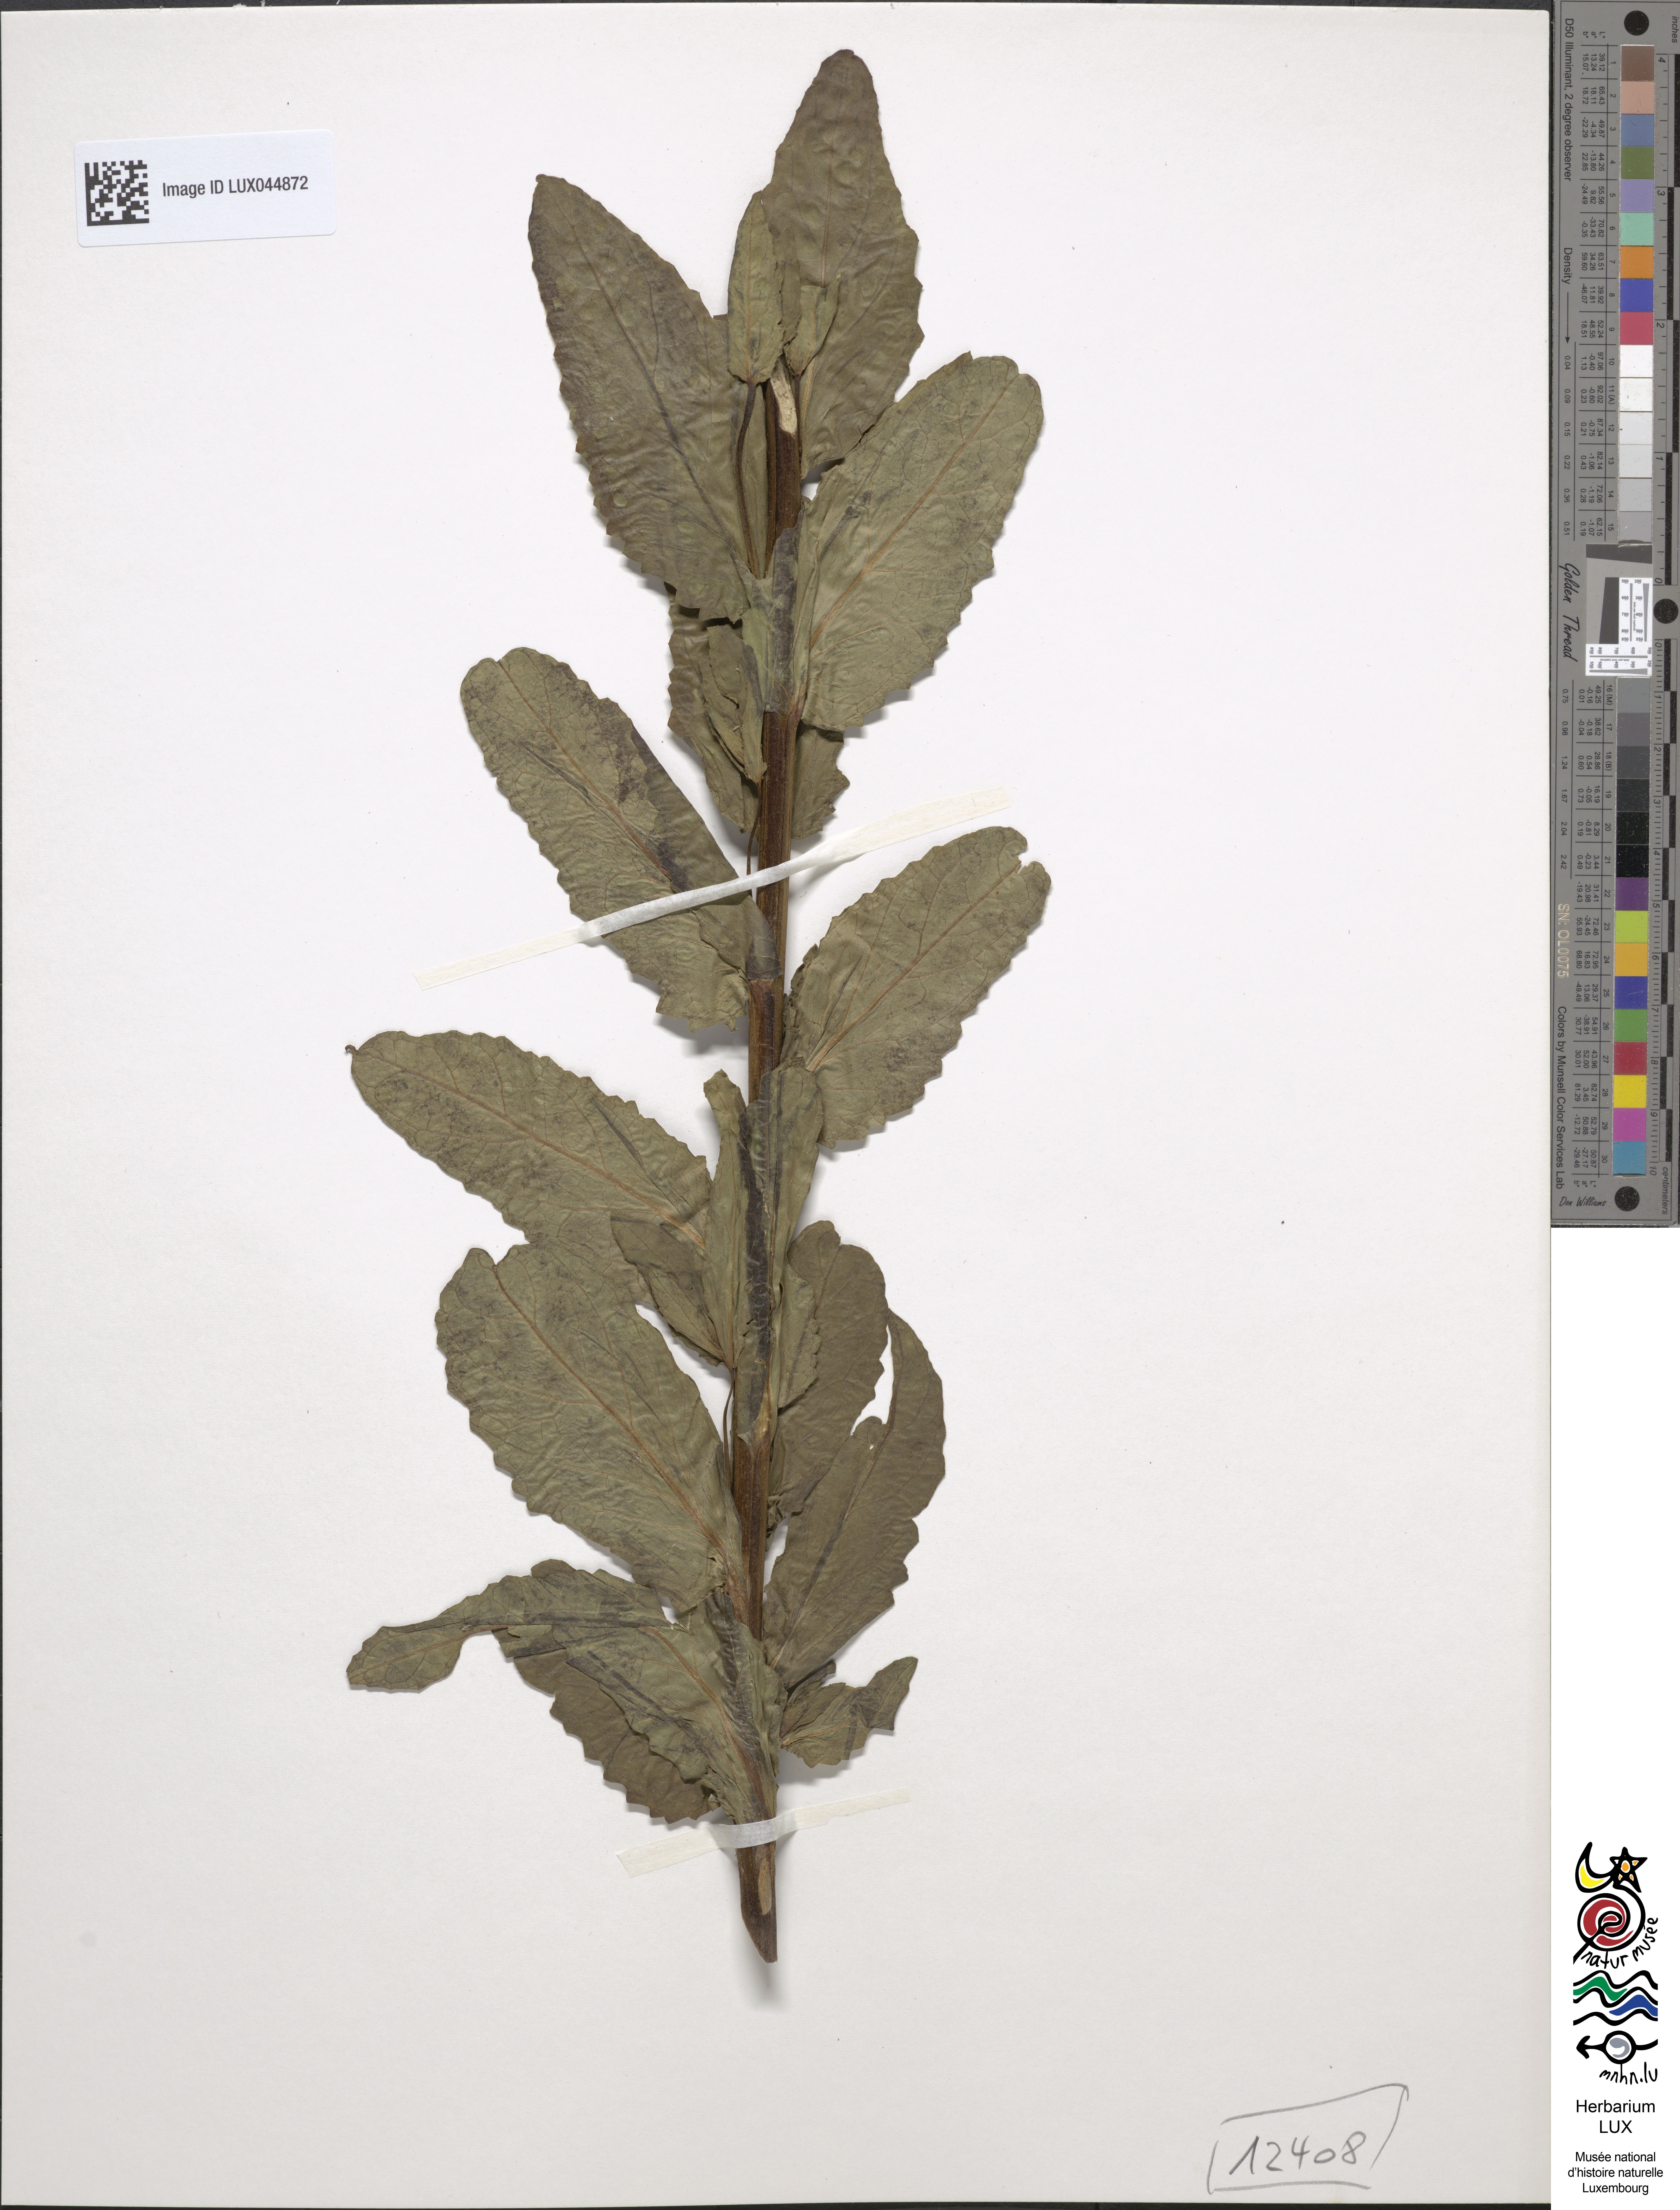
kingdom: Plantae
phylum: Tracheophyta
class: Magnoliopsida
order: Lamiales
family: Scrophulariaceae
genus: Verbascum
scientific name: Verbascum blattaria
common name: Moth mullein
